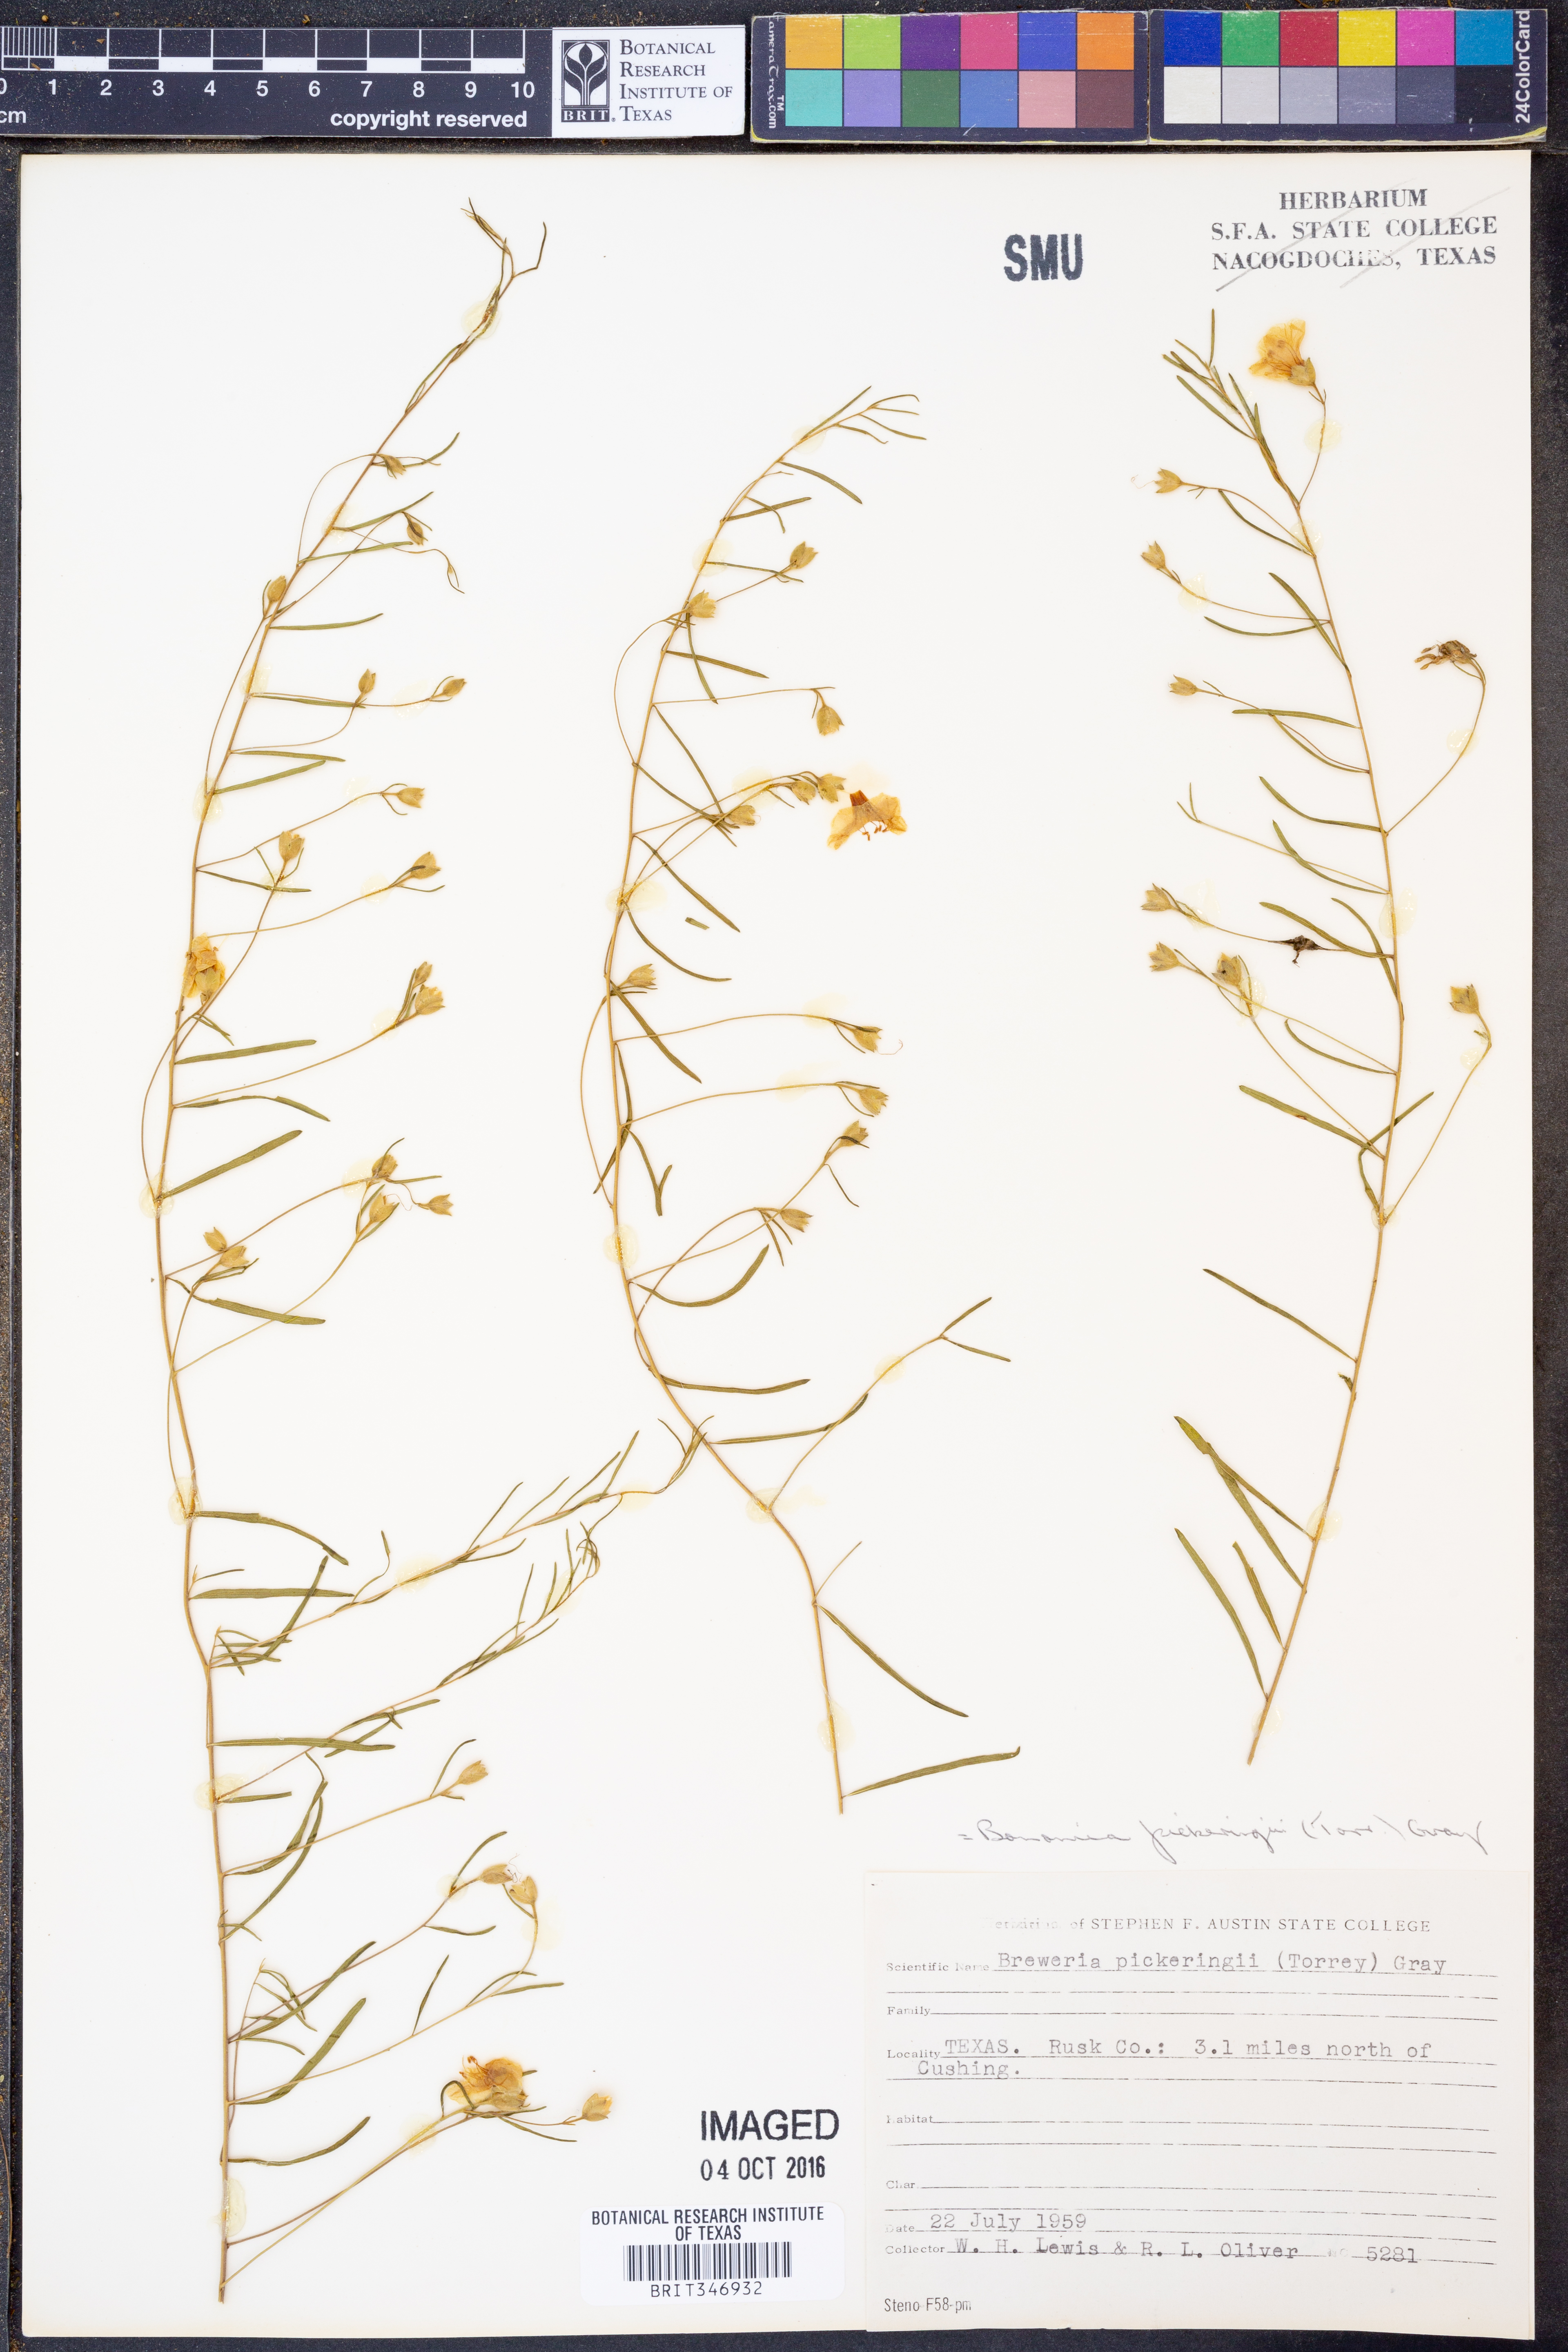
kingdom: Plantae
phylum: Tracheophyta
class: Magnoliopsida
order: Solanales
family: Convolvulaceae
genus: Stylisma
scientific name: Stylisma pickeringii
